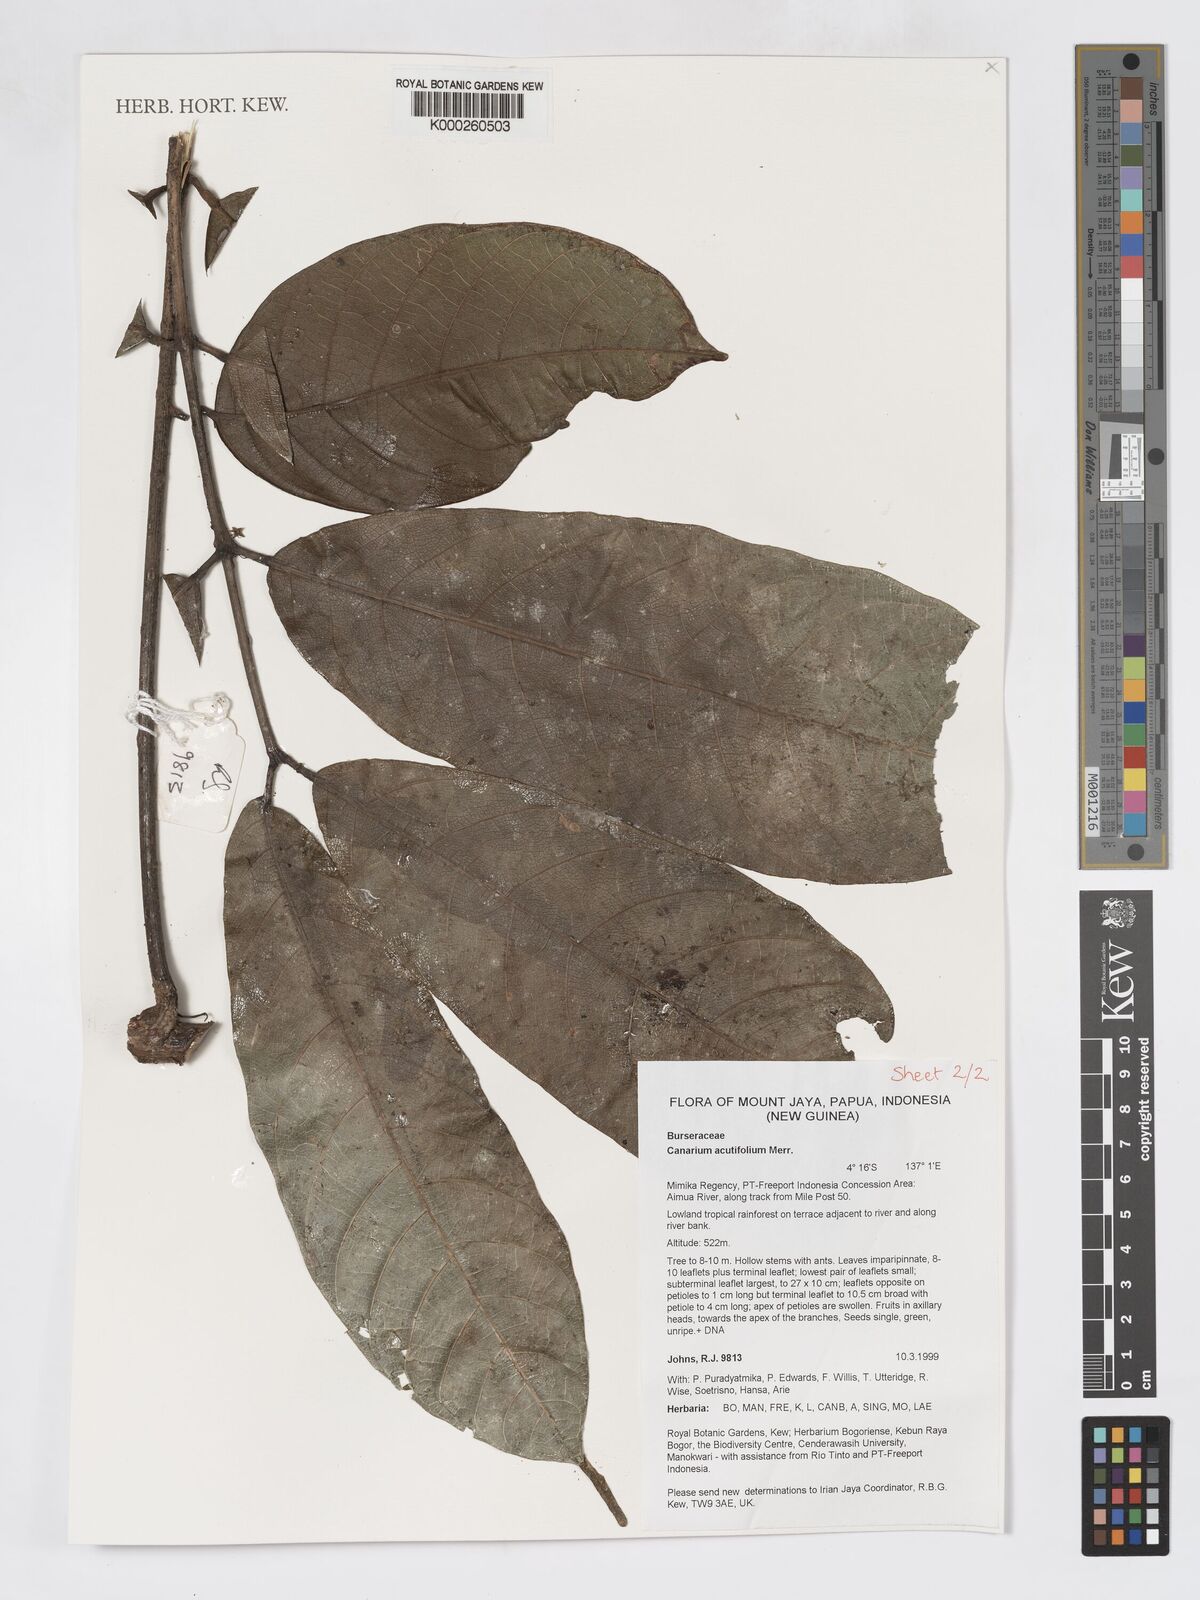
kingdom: Plantae
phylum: Tracheophyta
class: Magnoliopsida
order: Sapindales
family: Burseraceae
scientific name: Burseraceae
